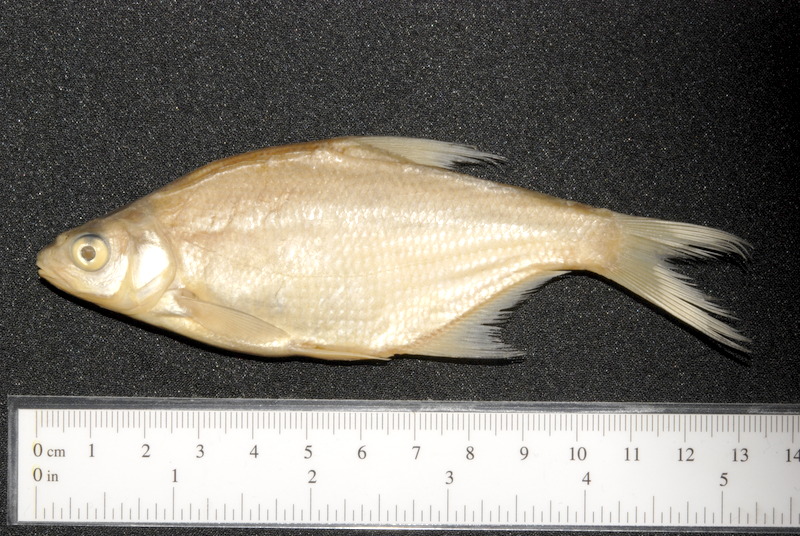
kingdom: Animalia
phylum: Chordata
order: Cypriniformes
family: Cyprinidae
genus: Abramis
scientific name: Abramis brama
